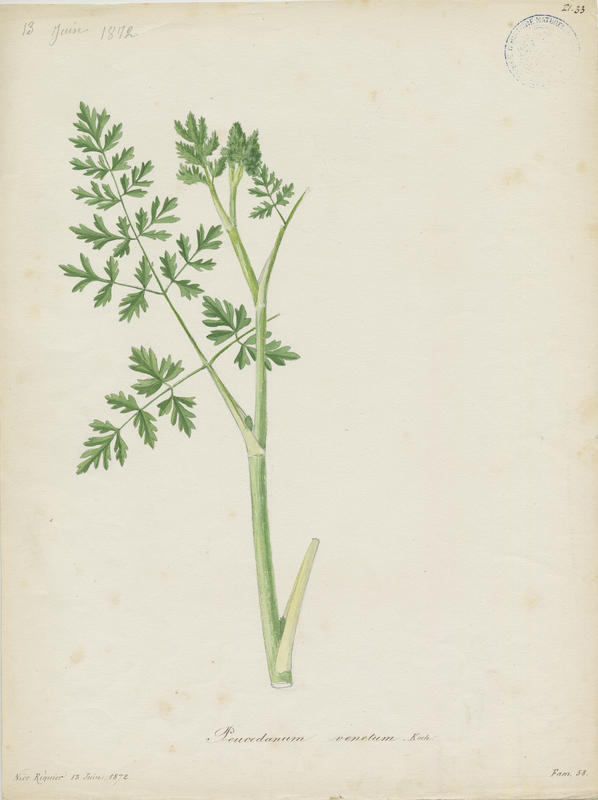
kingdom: Plantae
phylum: Tracheophyta
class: Magnoliopsida
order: Apiales
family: Apiaceae
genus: Xanthoselinum
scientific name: Xanthoselinum alsaticum
